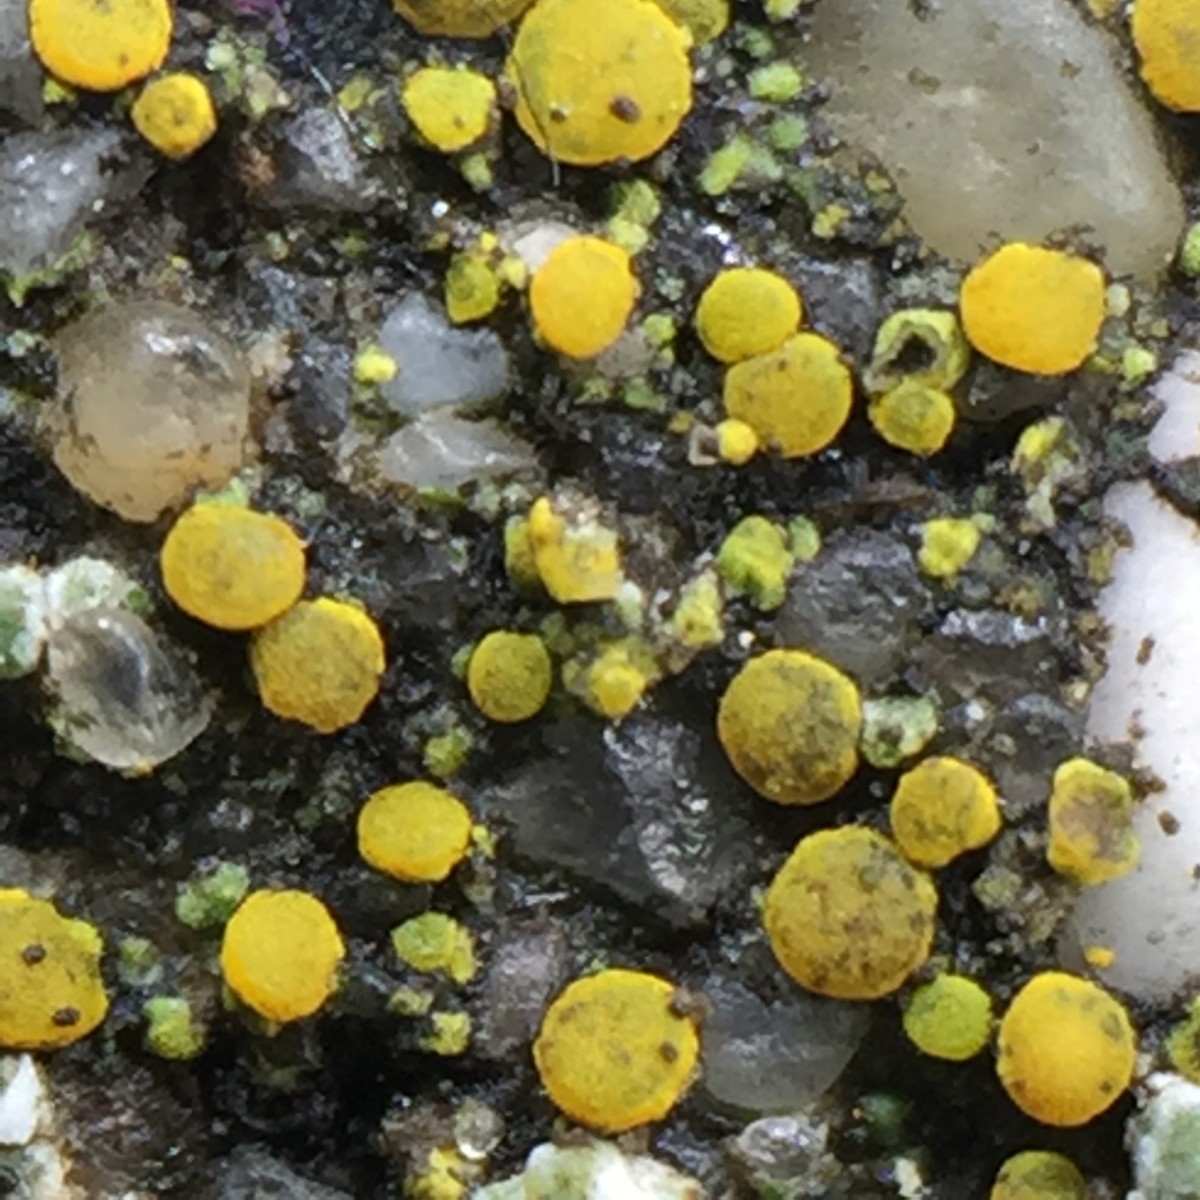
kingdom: Fungi
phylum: Ascomycota
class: Candelariomycetes
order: Candelariales
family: Candelariaceae
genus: Candelariella
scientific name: Candelariella aurella
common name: liden æggeblommelav
